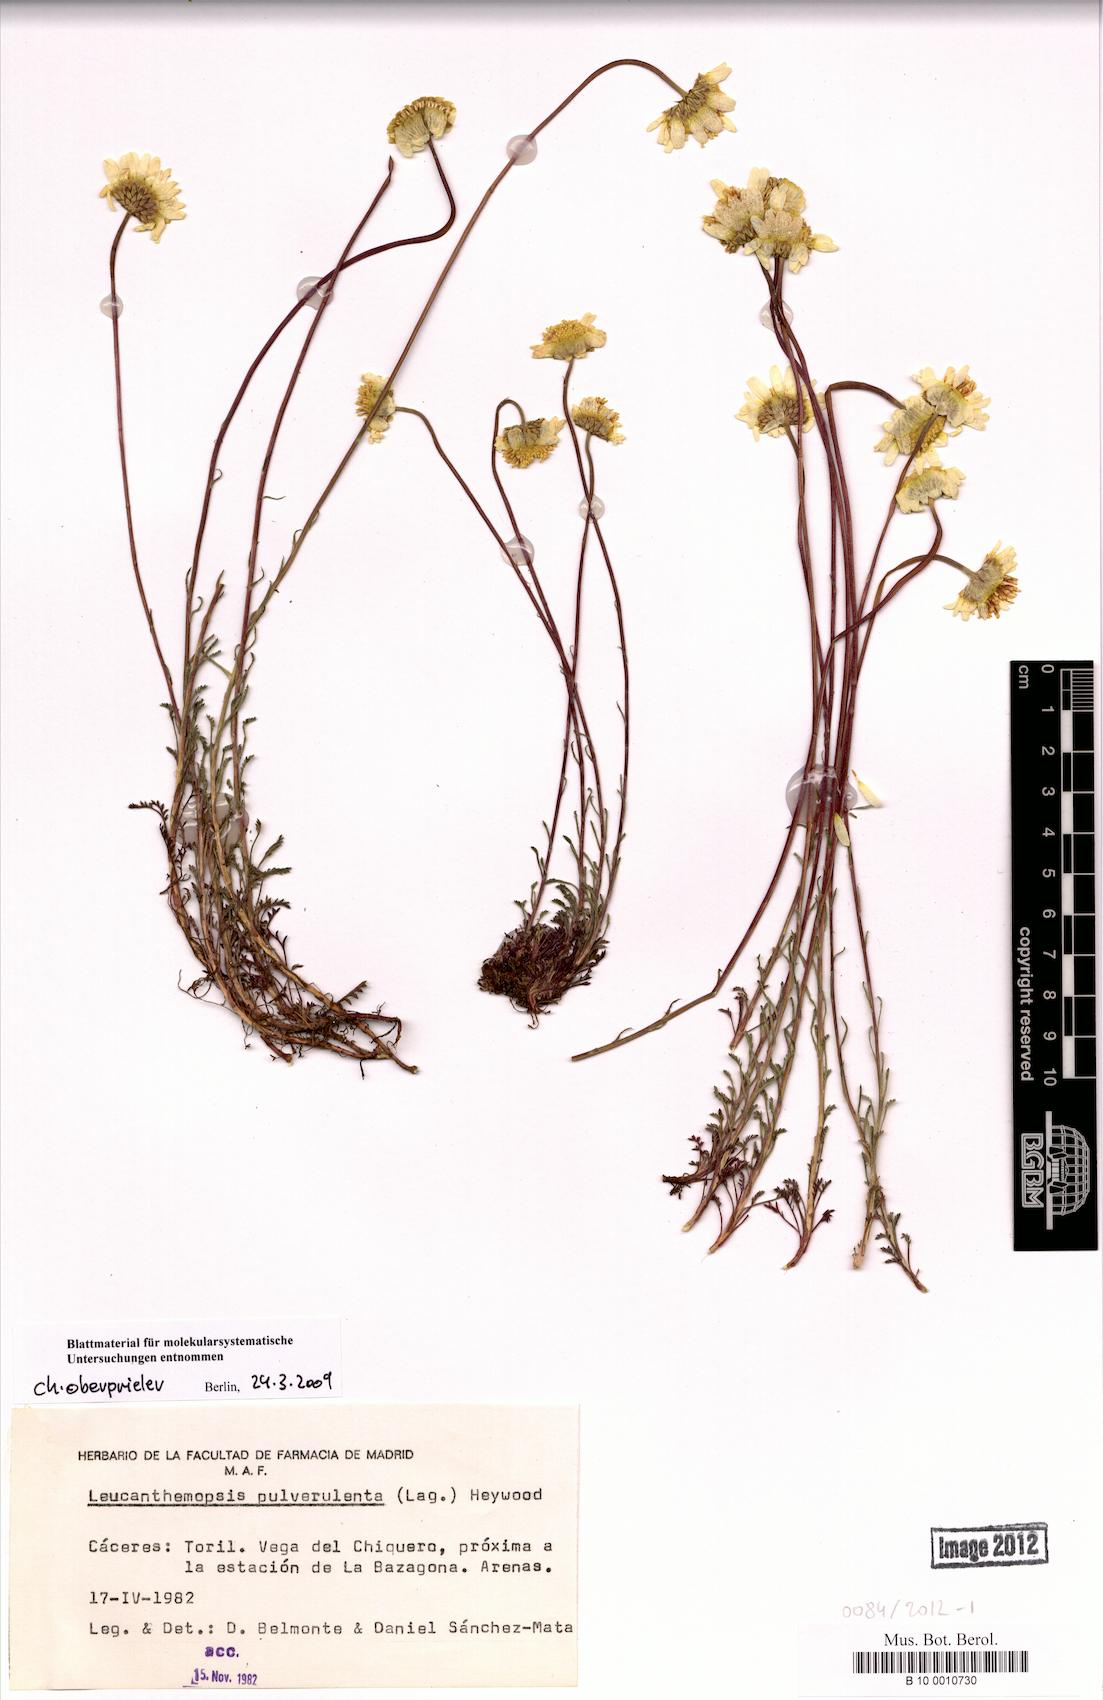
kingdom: Plantae
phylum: Tracheophyta
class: Magnoliopsida
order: Asterales
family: Asteraceae
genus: Leucanthemopsis
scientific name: Leucanthemopsis pulverulenta
